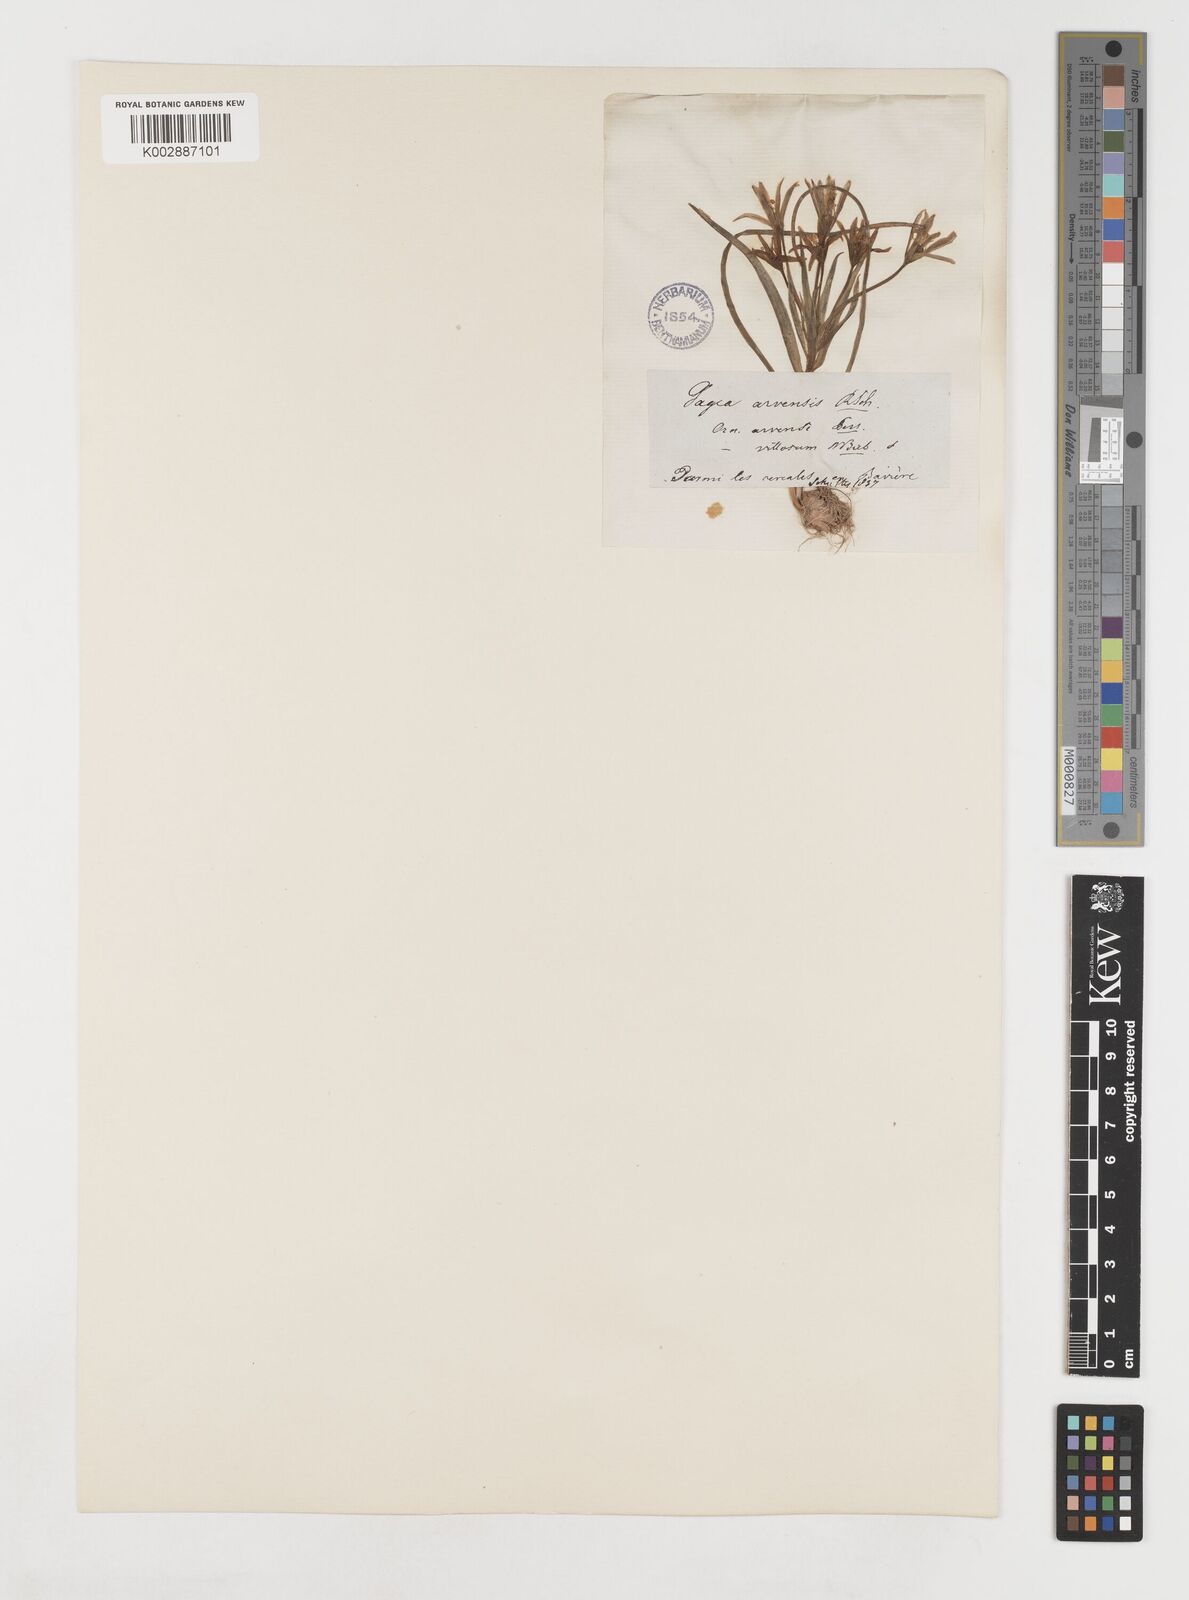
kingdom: Plantae
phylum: Tracheophyta
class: Liliopsida
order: Liliales
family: Liliaceae
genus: Gagea
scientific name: Gagea minima
